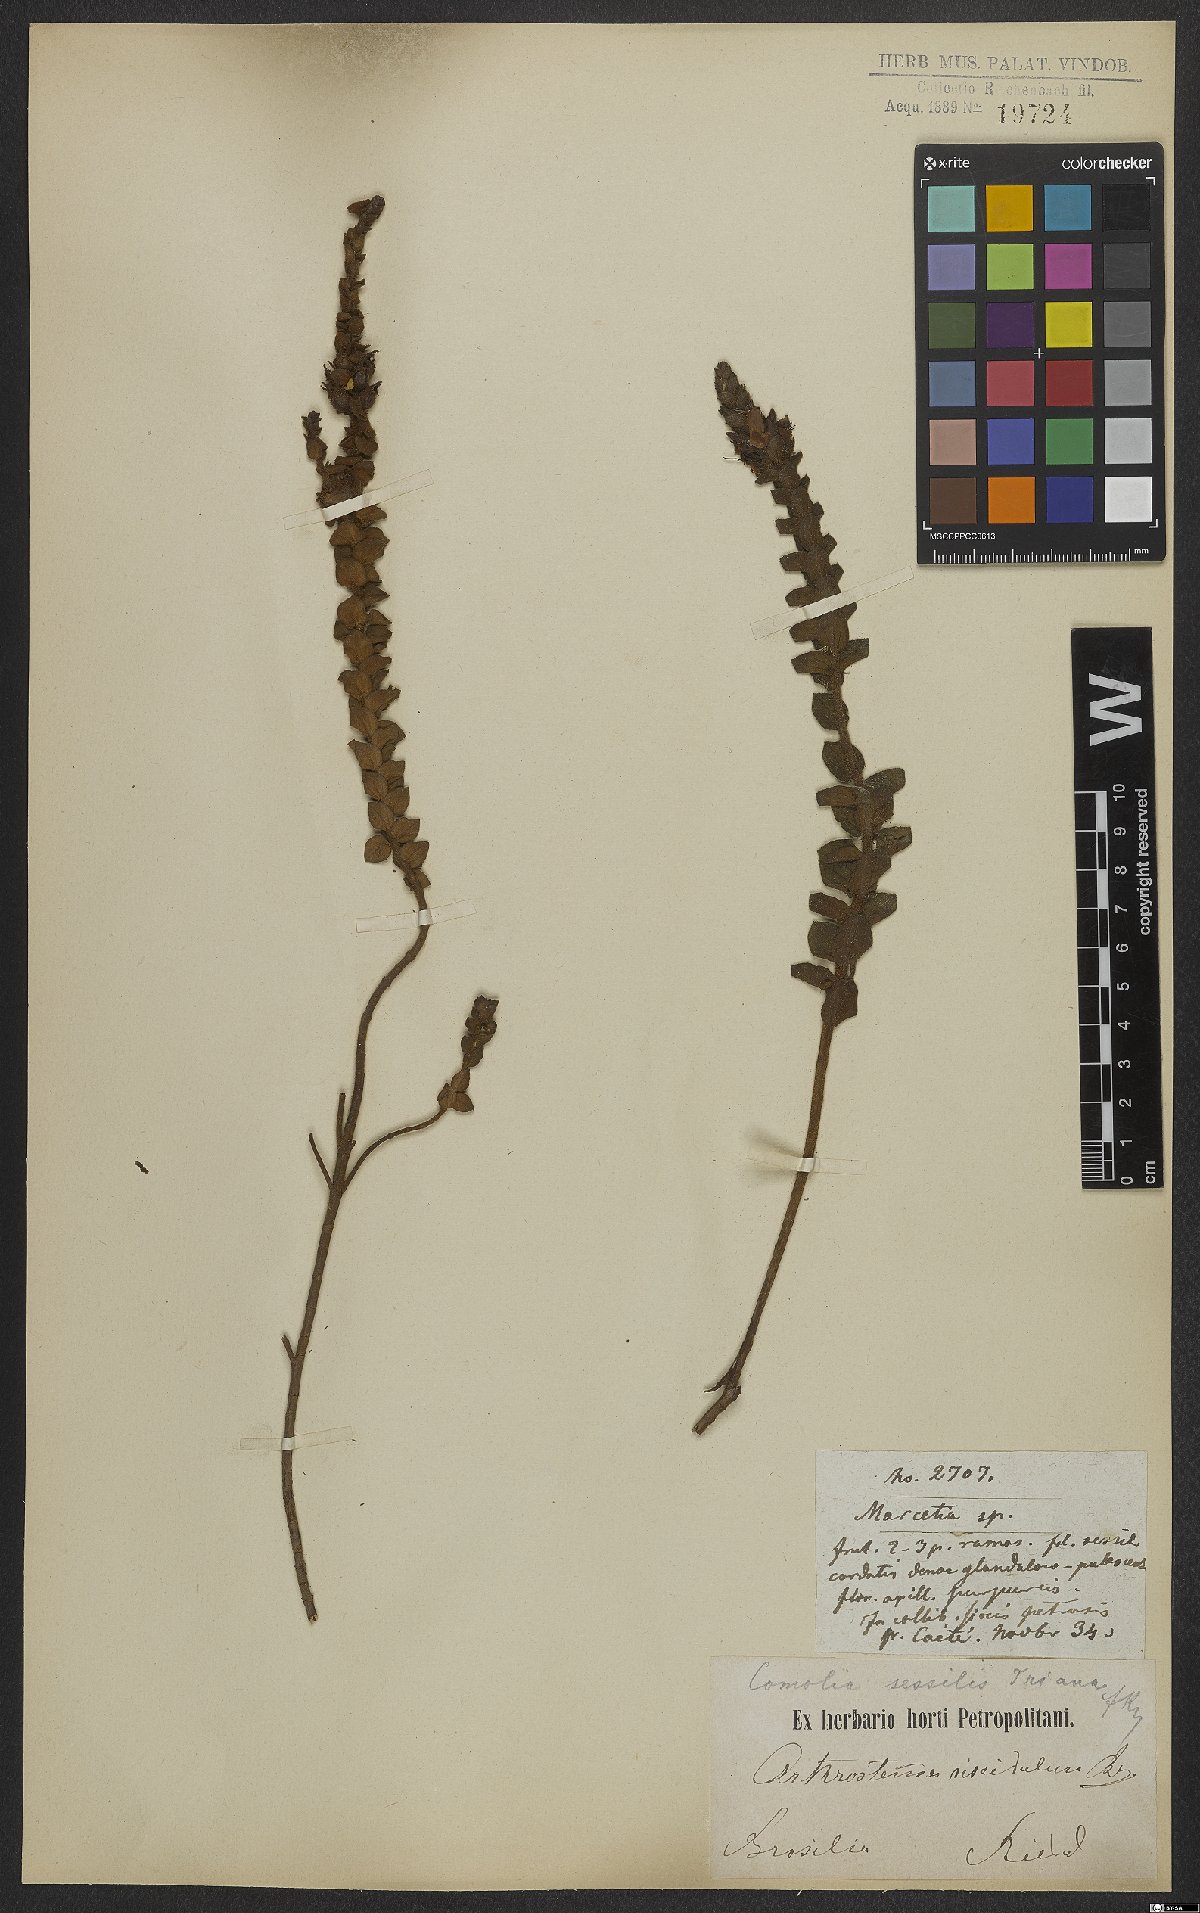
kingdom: Plantae
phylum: Tracheophyta
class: Magnoliopsida
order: Myrtales
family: Melastomataceae
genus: Fritzschia
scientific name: Fritzschia sessilis
